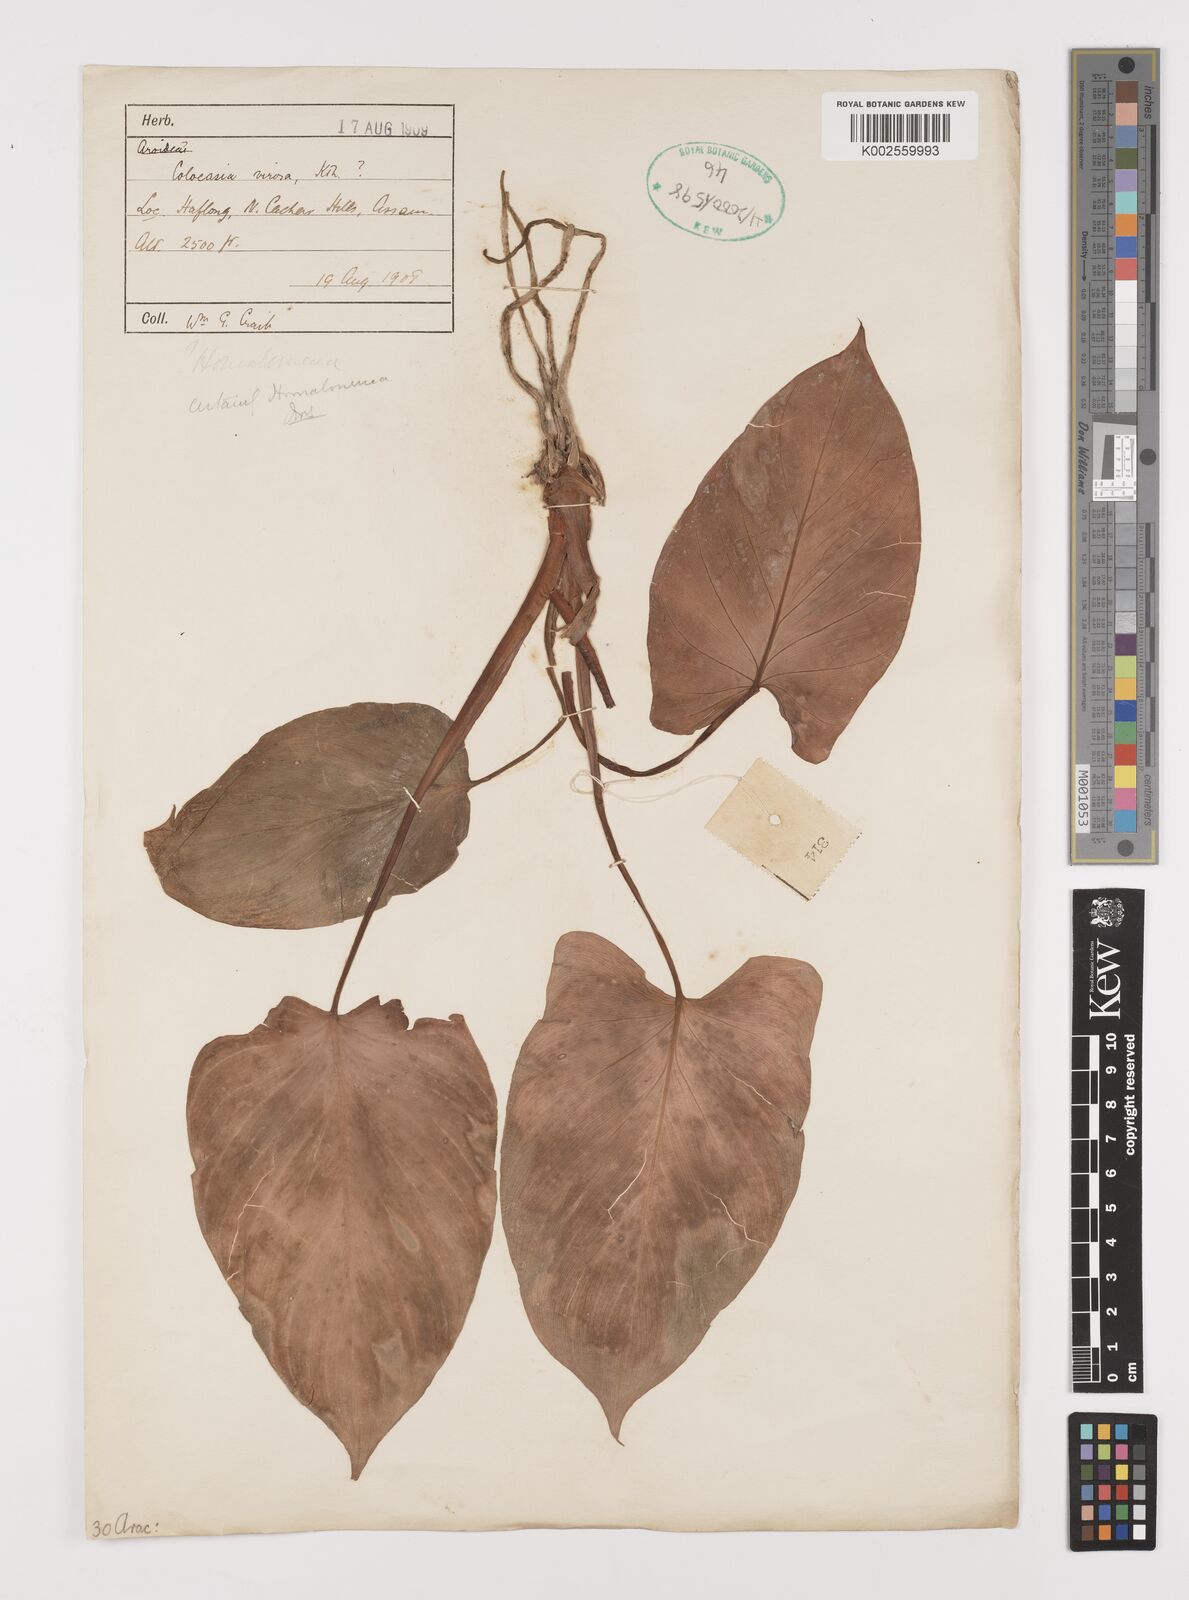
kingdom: Plantae
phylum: Tracheophyta
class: Liliopsida
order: Alismatales
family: Araceae
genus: Homalomena
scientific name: Homalomena
